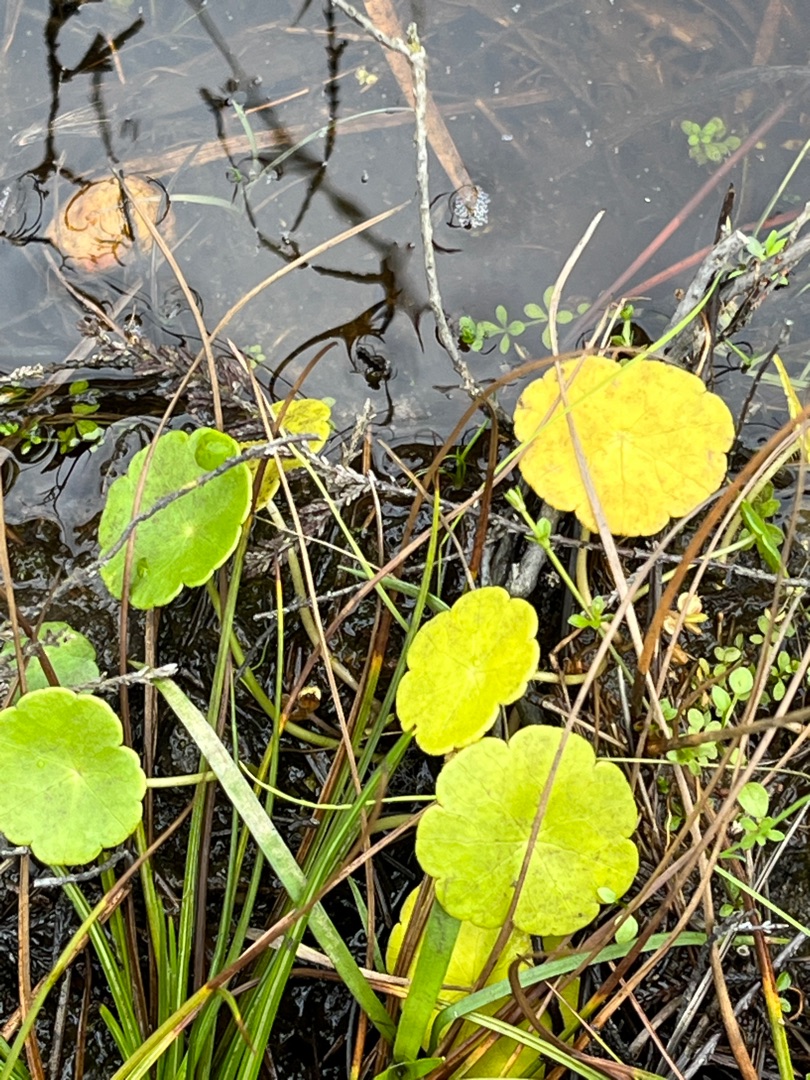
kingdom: Plantae
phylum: Tracheophyta
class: Magnoliopsida
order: Apiales
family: Araliaceae
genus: Hydrocotyle
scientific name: Hydrocotyle vulgaris
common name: Vandnavle
